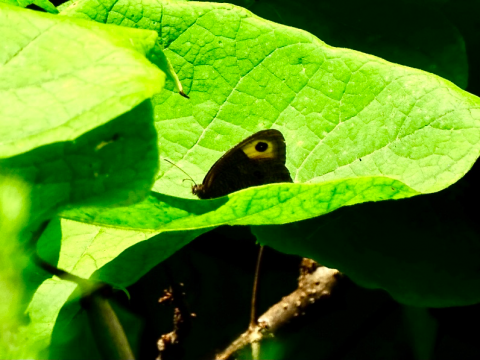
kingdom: Animalia
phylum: Arthropoda
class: Insecta
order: Lepidoptera
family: Nymphalidae
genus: Cercyonis
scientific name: Cercyonis pegala
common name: Common Wood-Nymph
